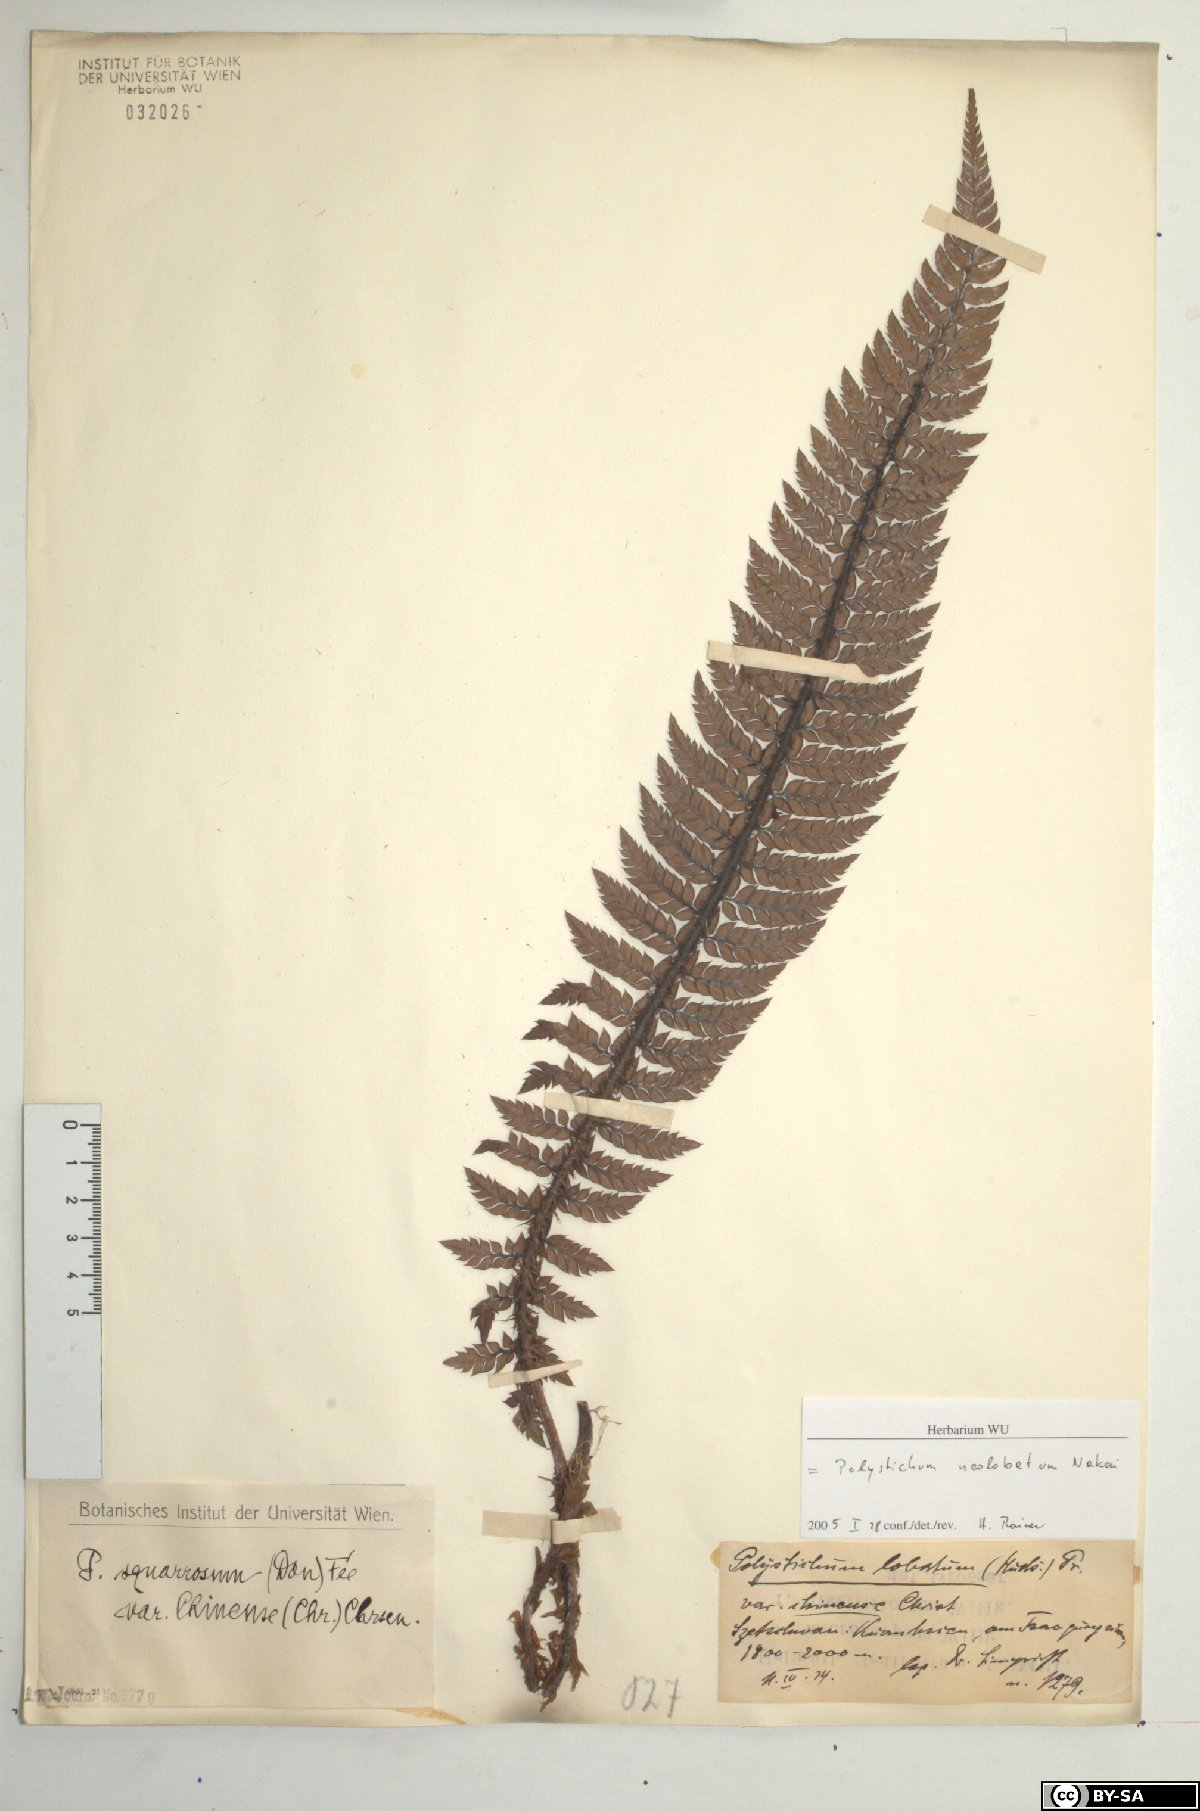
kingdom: Plantae
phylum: Tracheophyta
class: Polypodiopsida
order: Polypodiales
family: Dryopteridaceae
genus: Polystichum
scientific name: Polystichum neolobatum
